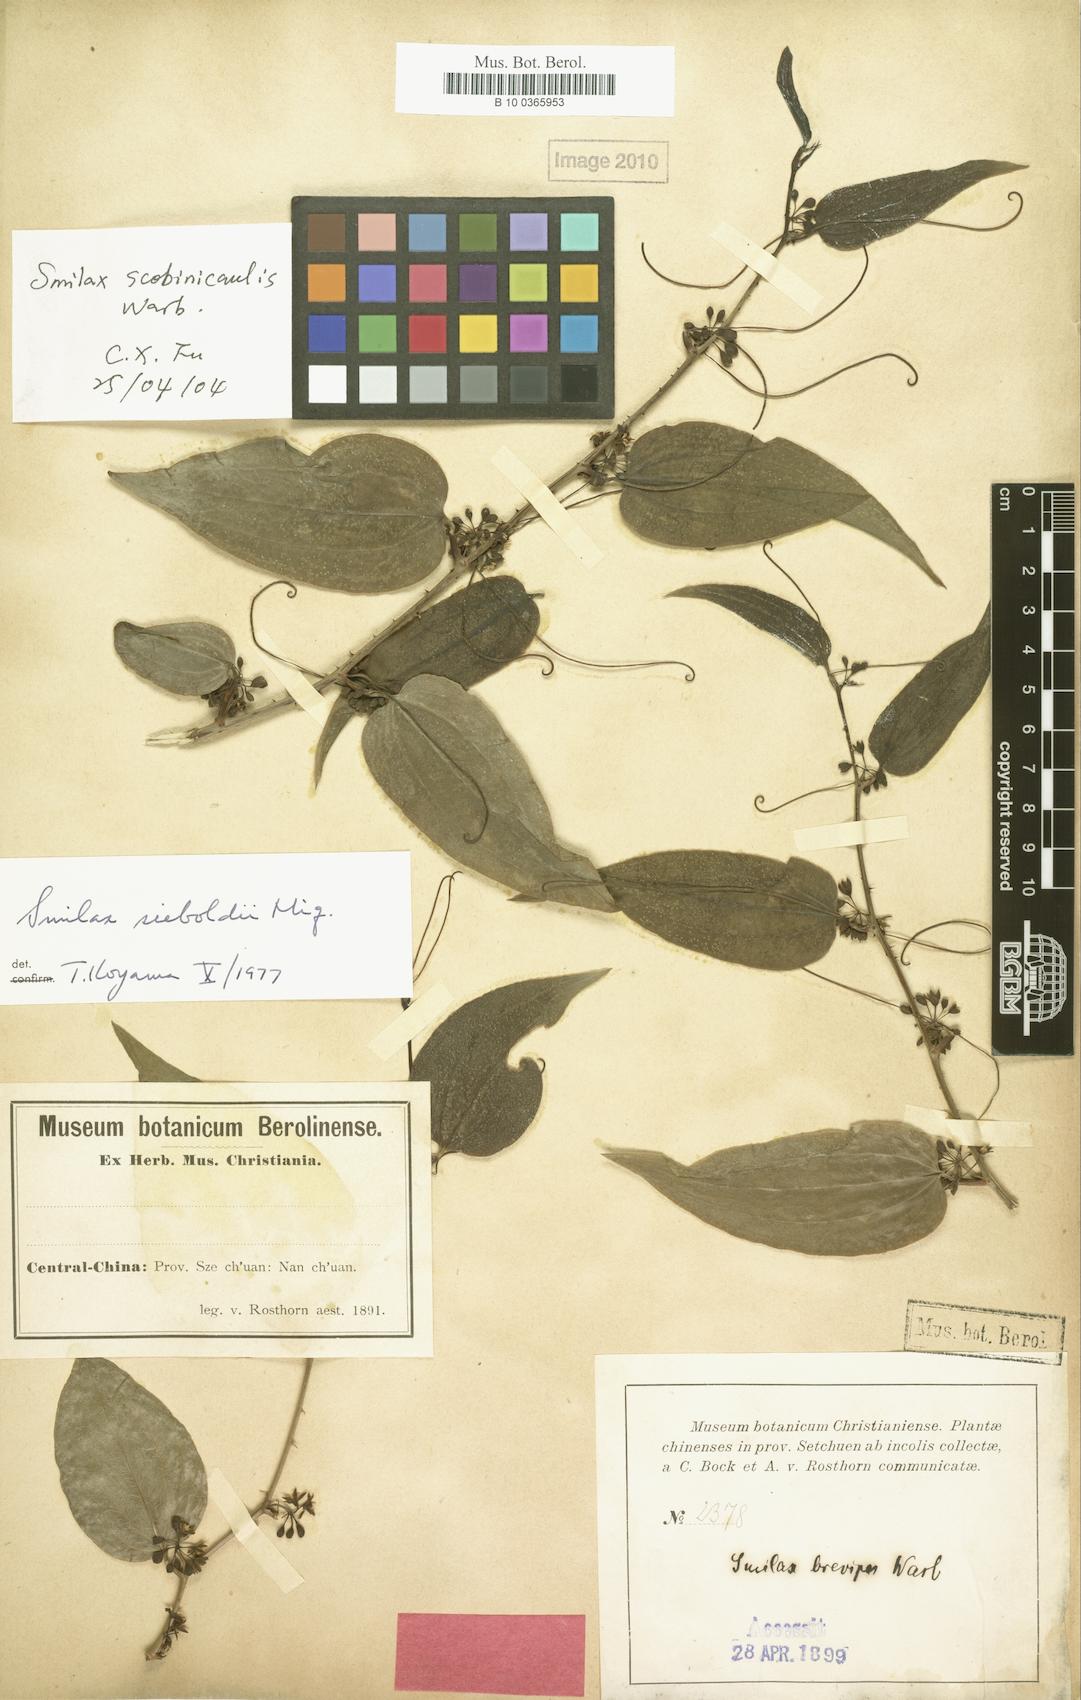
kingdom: Plantae
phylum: Tracheophyta
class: Liliopsida
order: Liliales
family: Smilacaceae
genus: Smilax
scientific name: Smilax sieboldii
